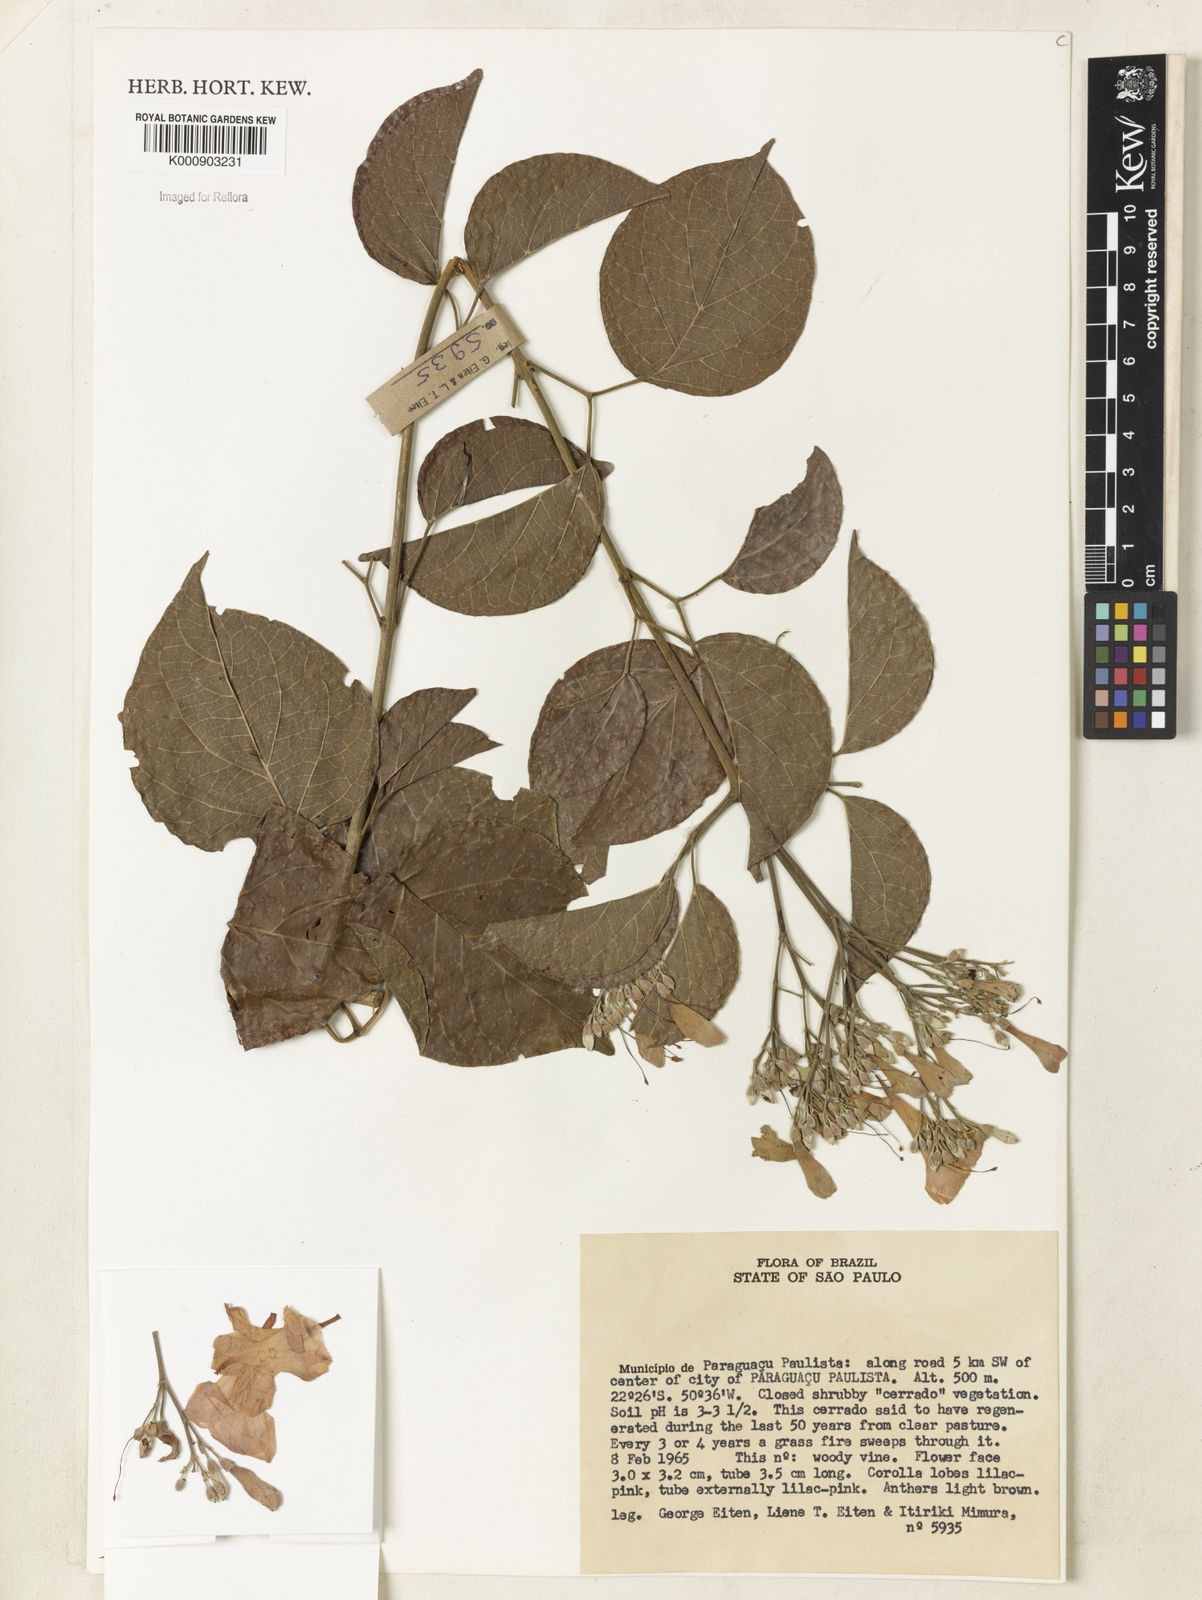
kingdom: Plantae
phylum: Tracheophyta
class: Magnoliopsida
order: Lamiales
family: Bignoniaceae
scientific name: Bignoniaceae
